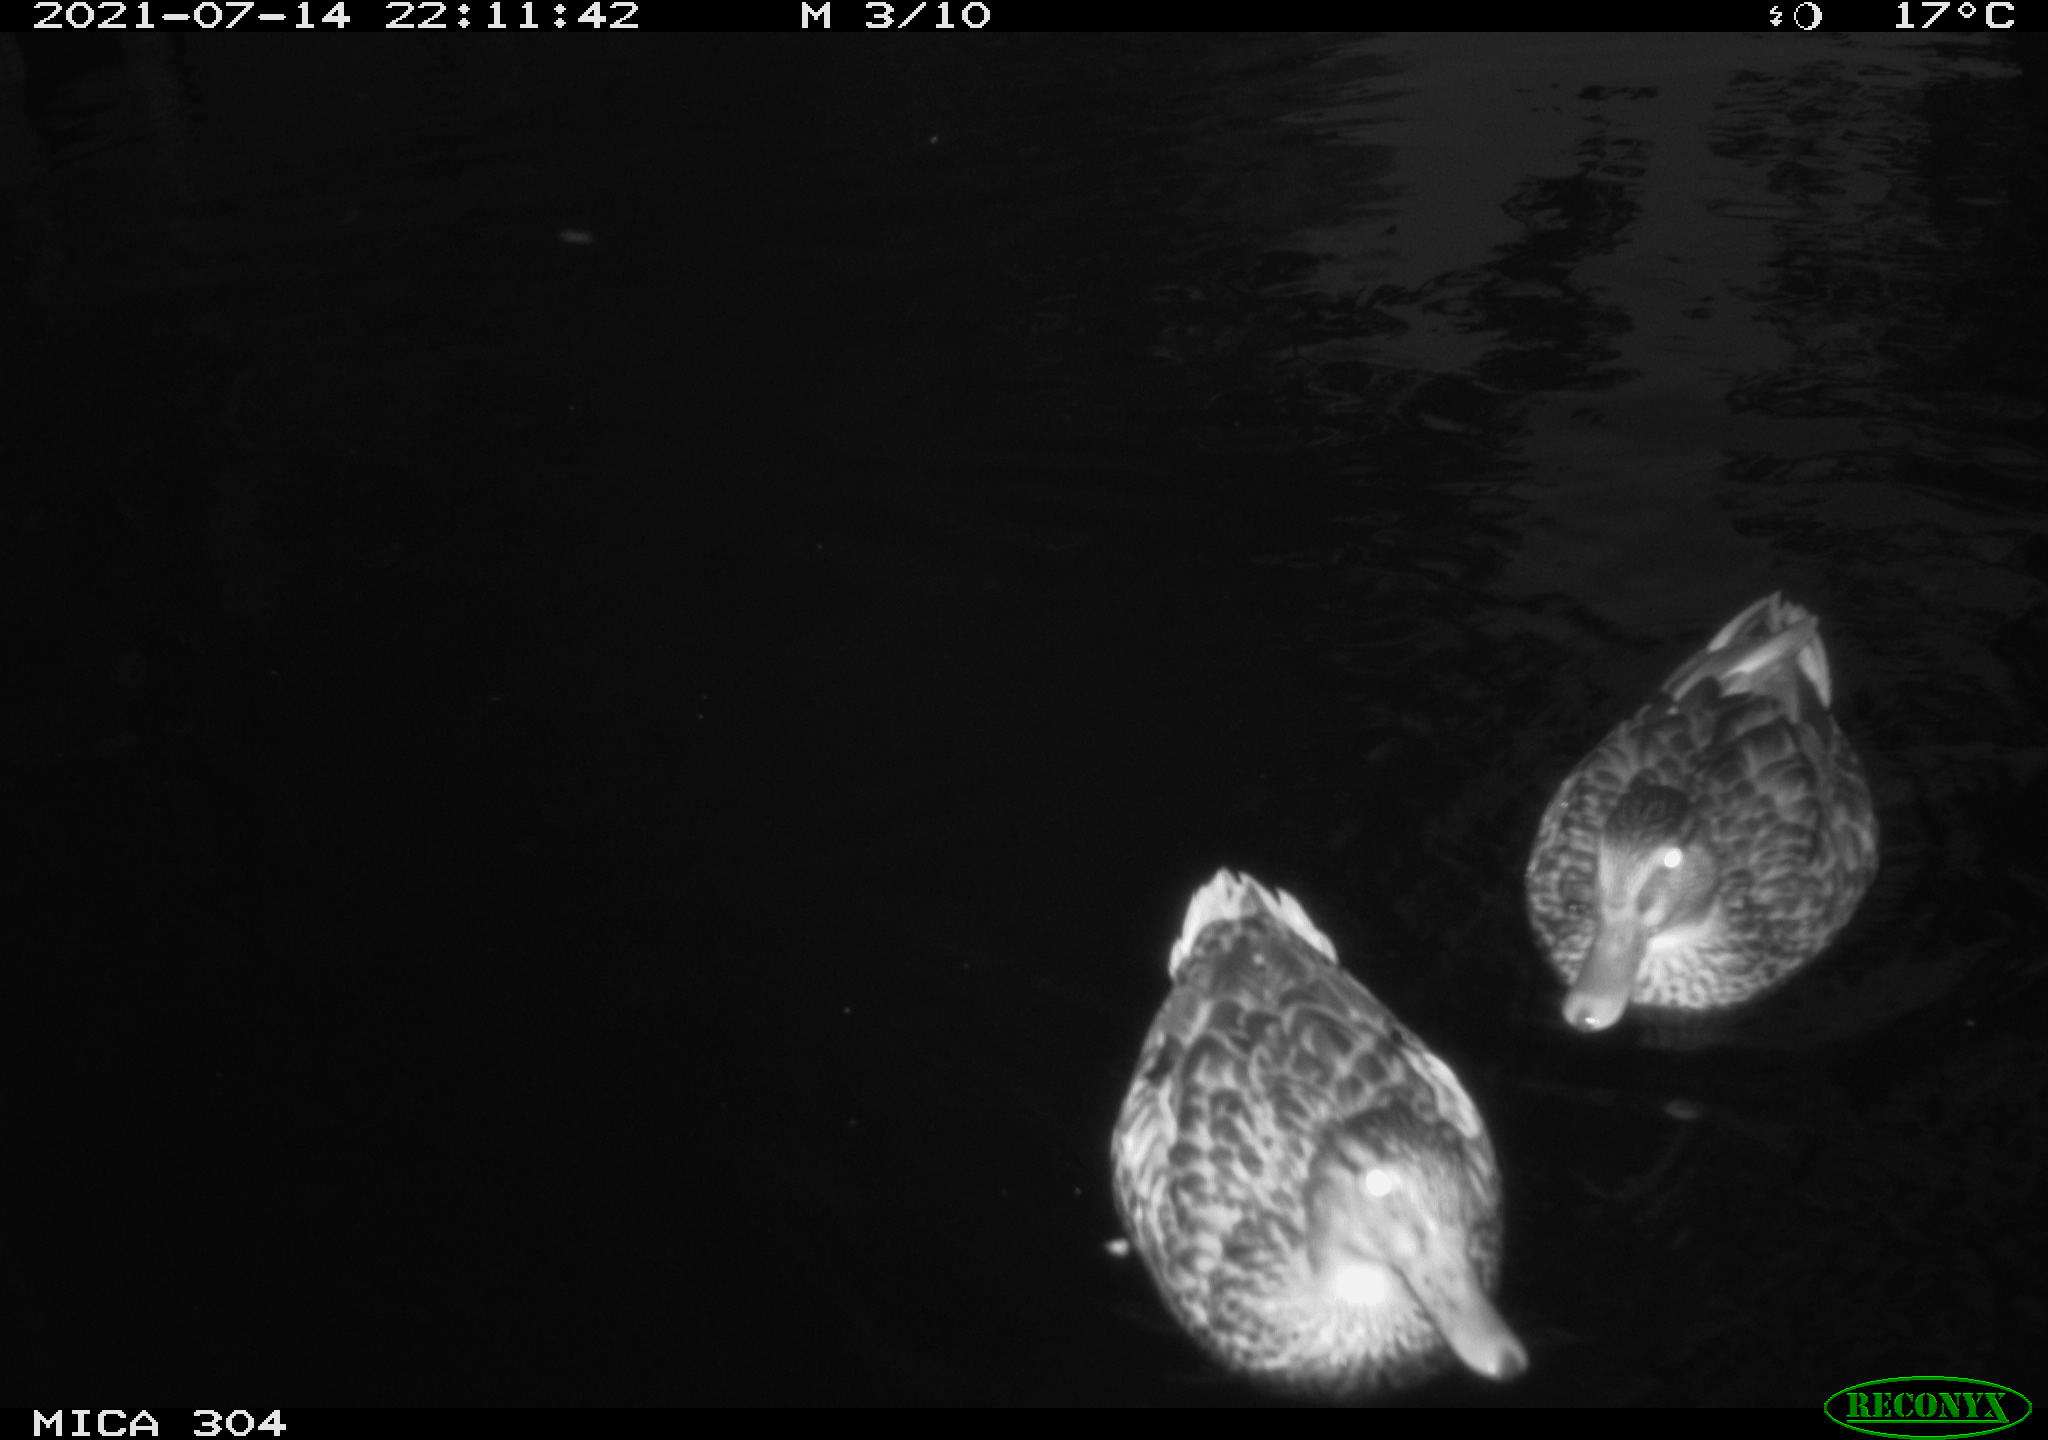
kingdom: Animalia
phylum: Chordata
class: Aves
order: Anseriformes
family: Anatidae
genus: Anas
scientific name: Anas platyrhynchos
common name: Mallard
